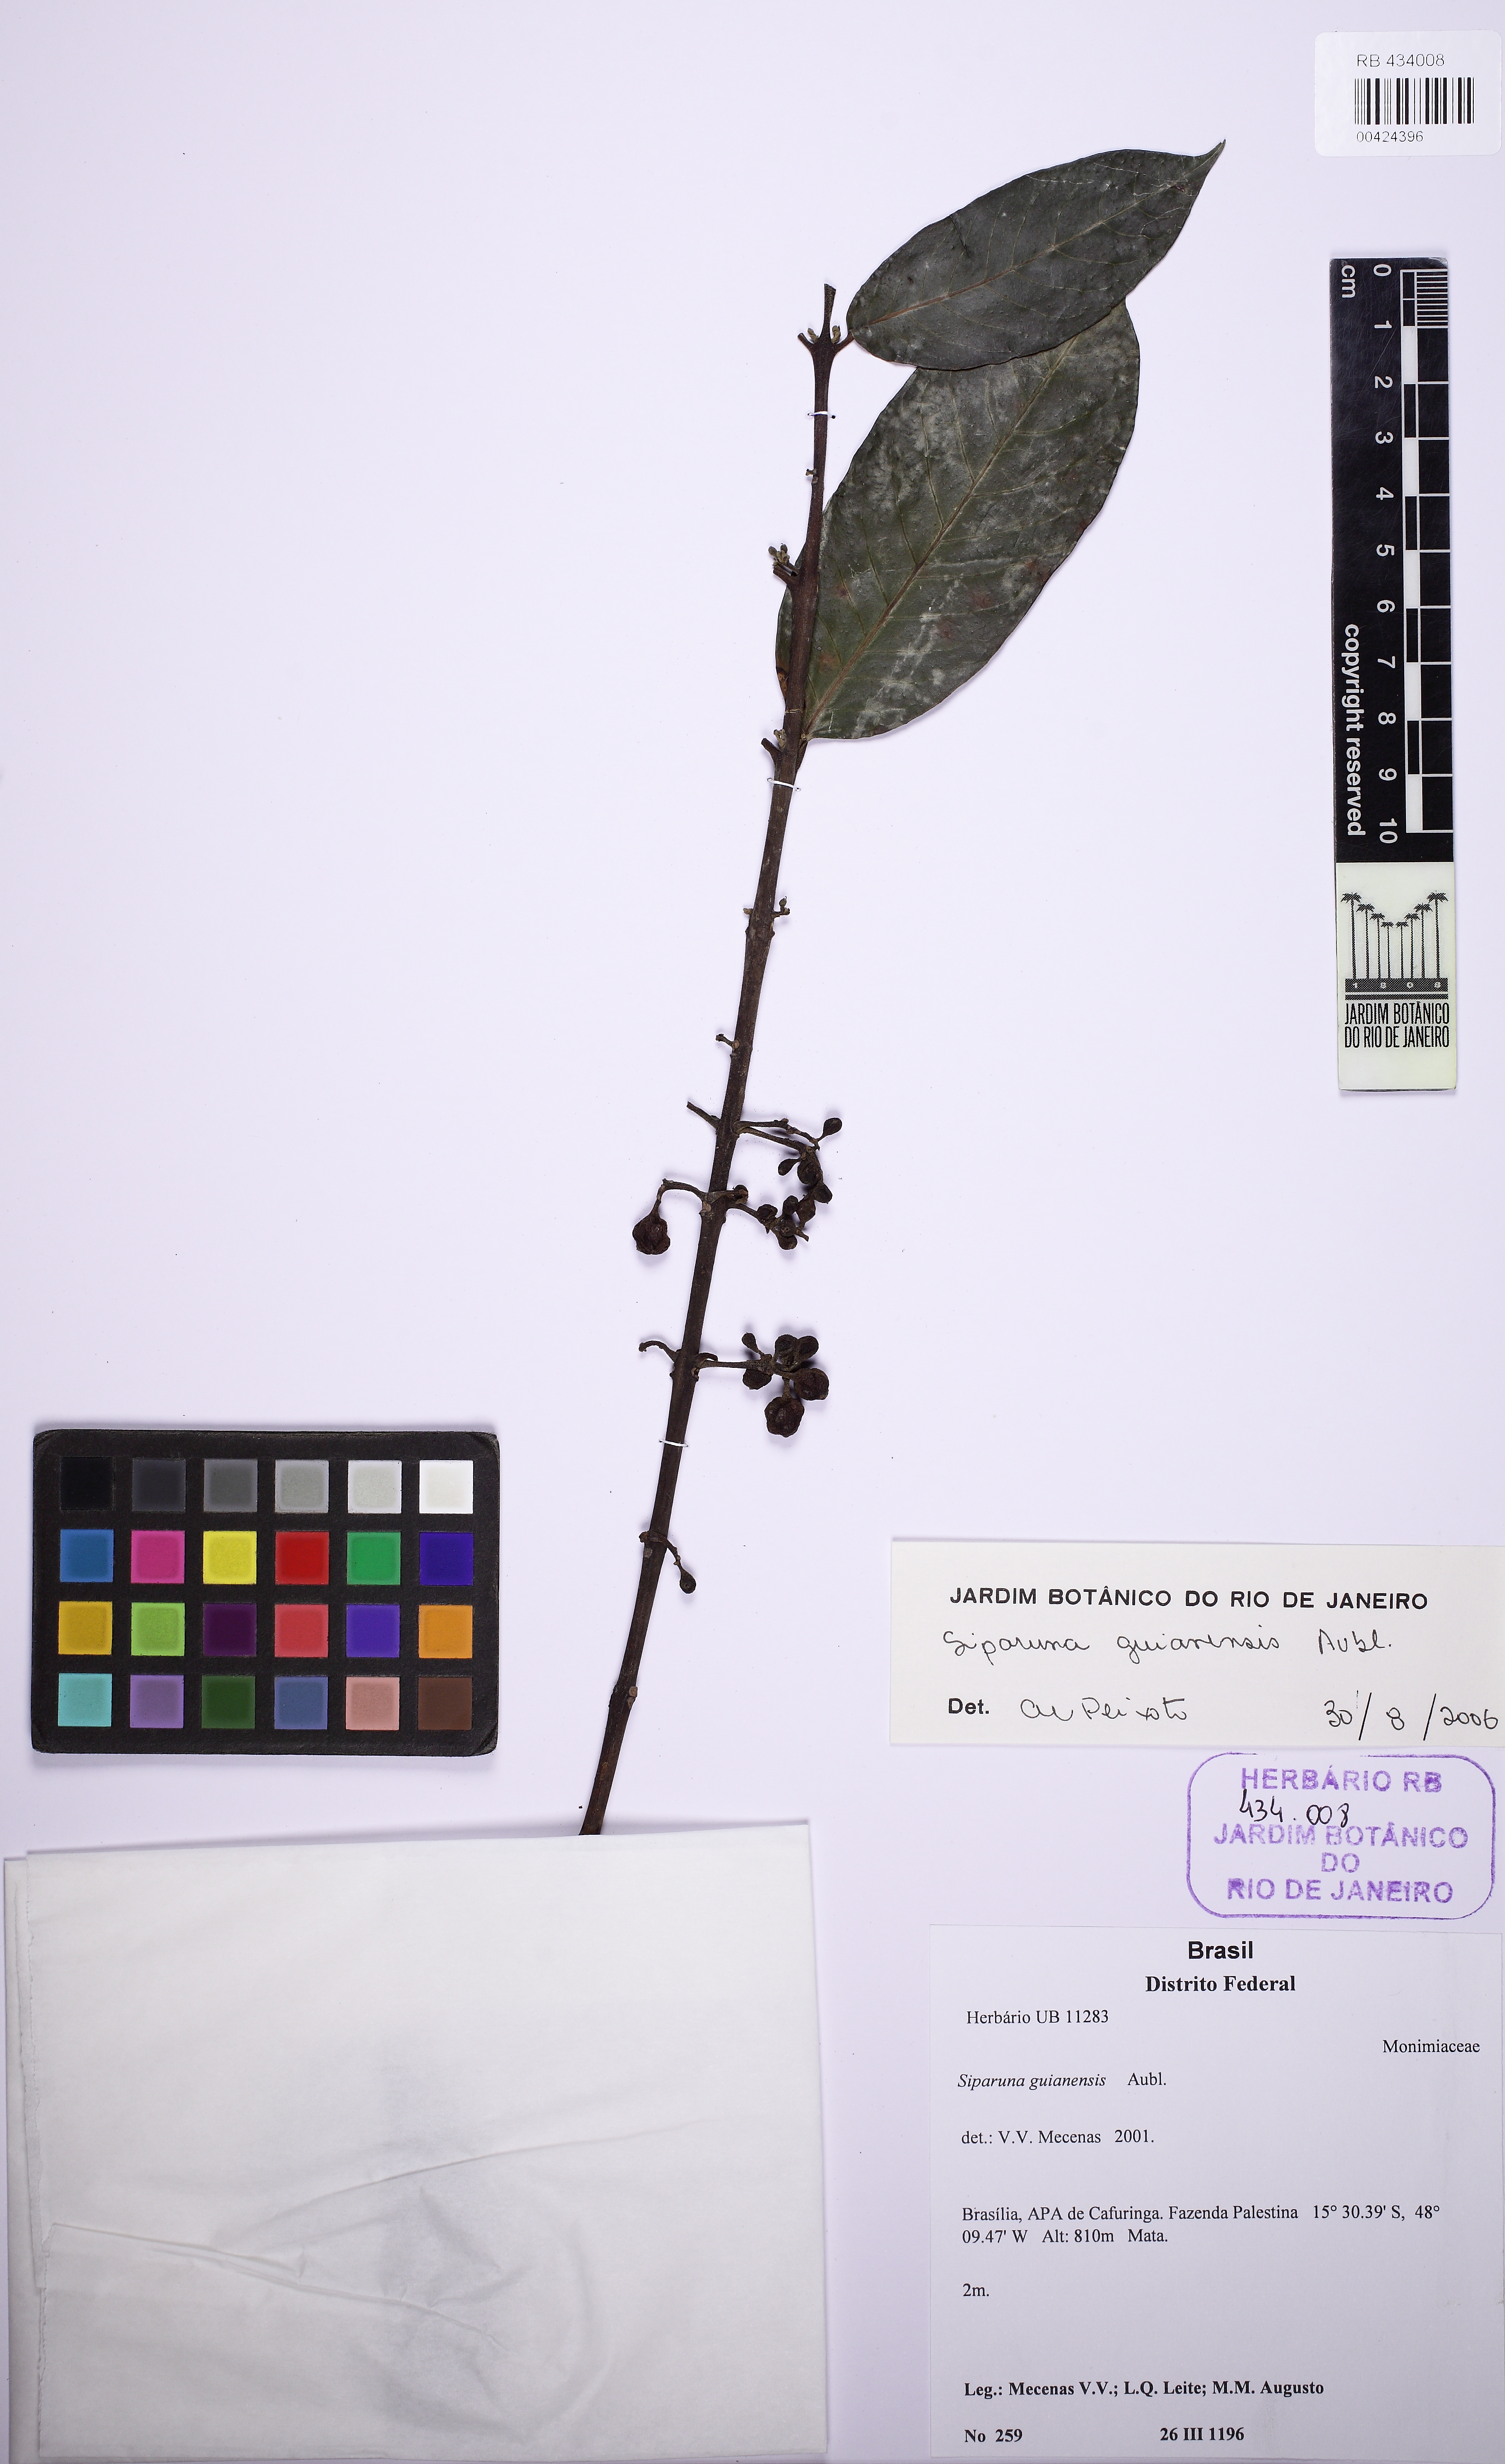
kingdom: Plantae
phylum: Tracheophyta
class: Magnoliopsida
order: Laurales
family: Siparunaceae
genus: Siparuna
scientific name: Siparuna guianensis
